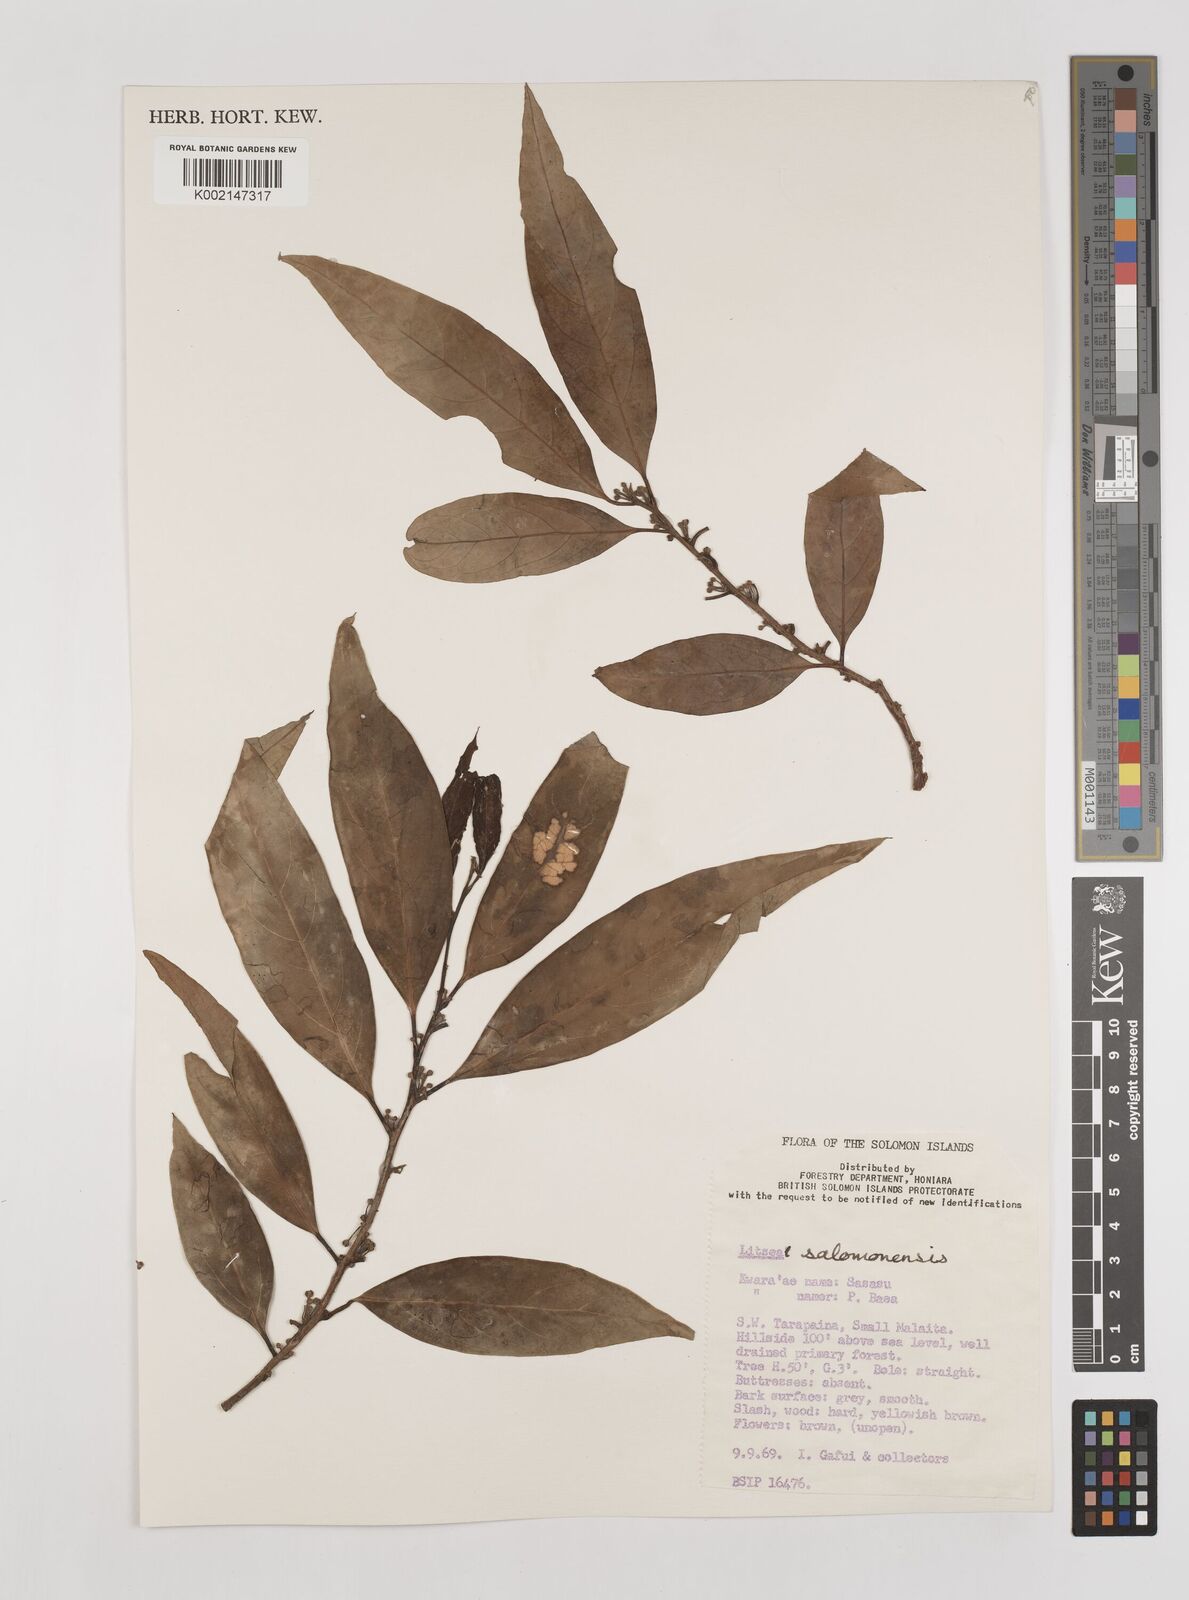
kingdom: Plantae
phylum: Tracheophyta
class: Magnoliopsida
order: Laurales
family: Lauraceae
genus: Litsea
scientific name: Litsea timoriana
